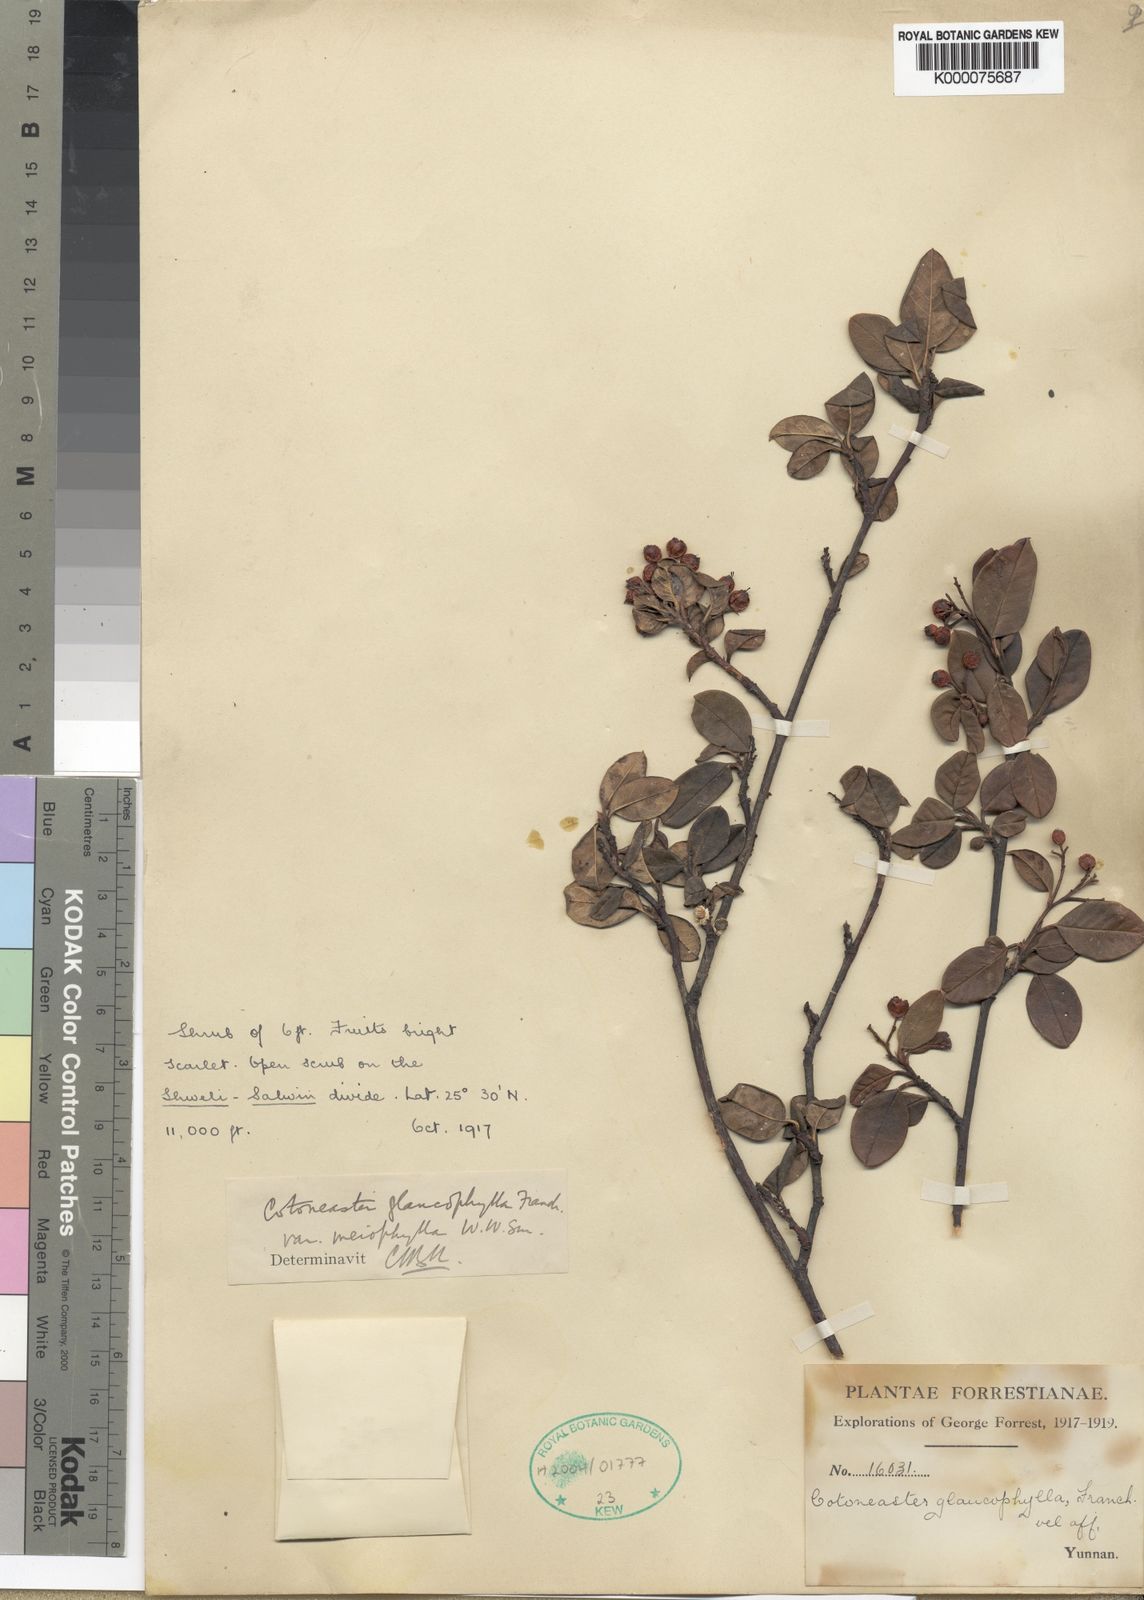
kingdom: Plantae
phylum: Tracheophyta
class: Magnoliopsida
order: Rosales
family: Rosaceae
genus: Cotoneaster
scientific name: Cotoneaster glaucophyllus
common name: Glaucous cotoneaster
